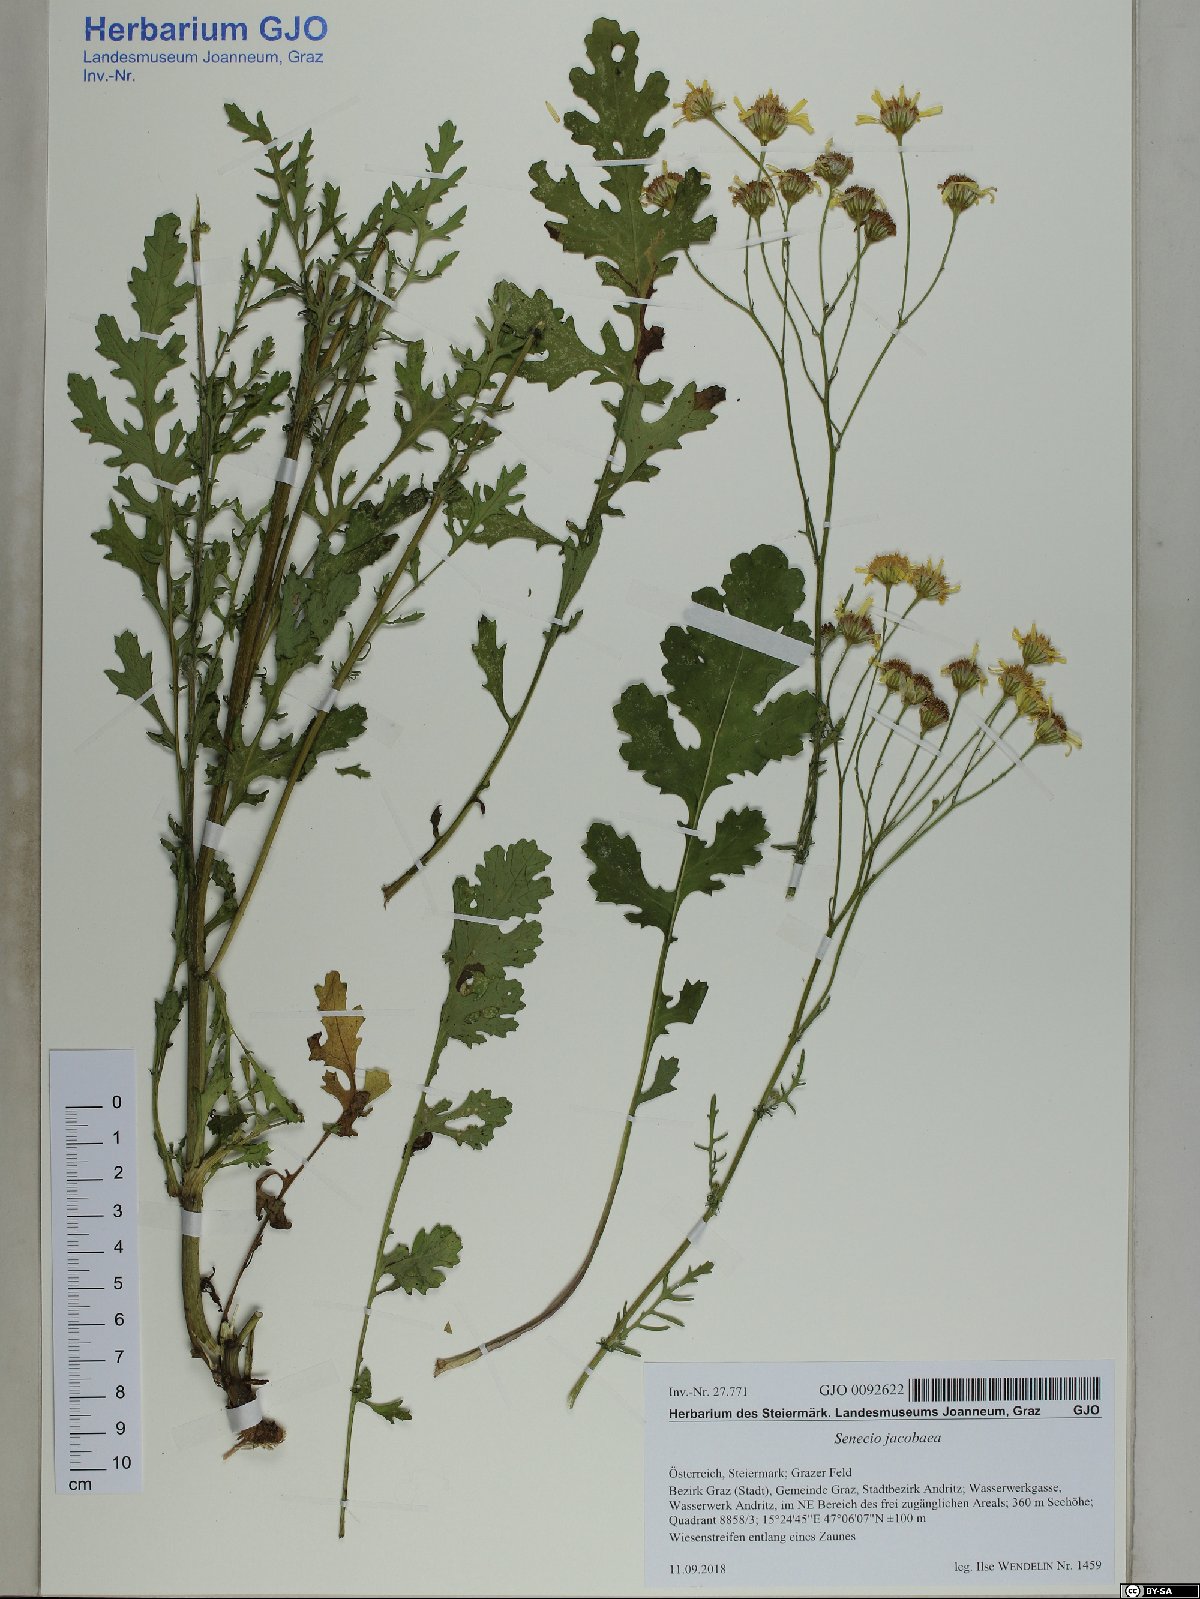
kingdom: Plantae
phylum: Tracheophyta
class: Magnoliopsida
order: Asterales
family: Asteraceae
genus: Jacobaea
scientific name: Jacobaea vulgaris
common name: Stinking willie
